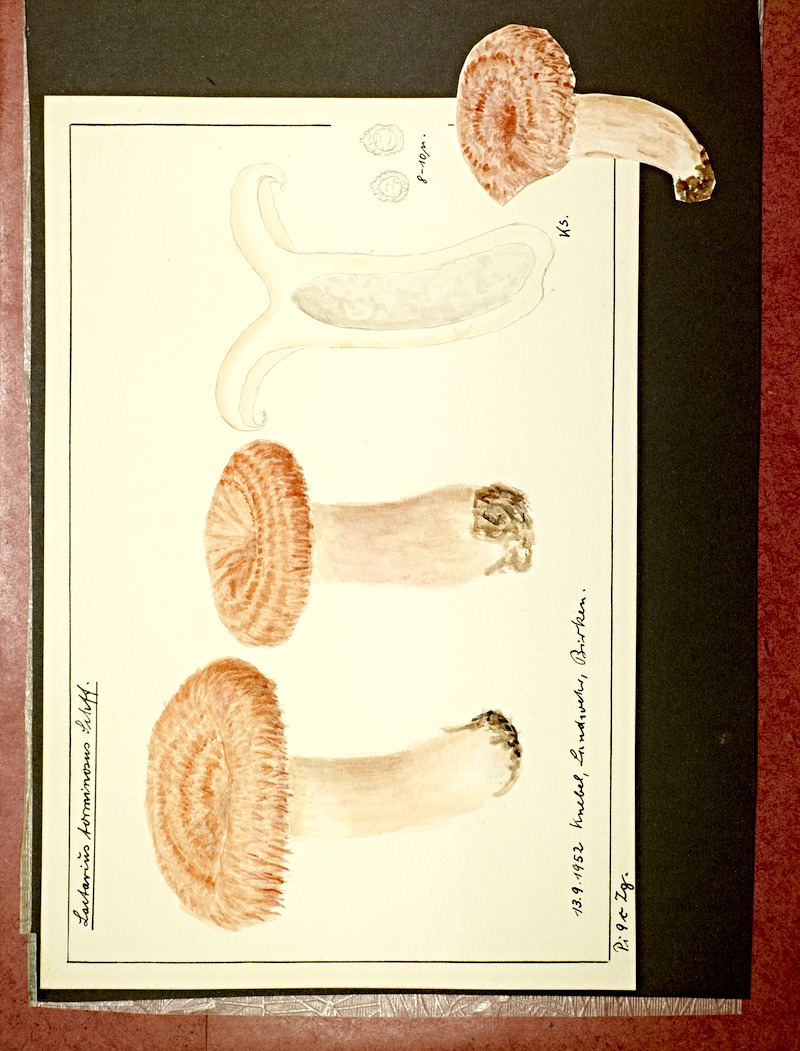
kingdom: Fungi
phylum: Basidiomycota
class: Agaricomycetes
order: Russulales
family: Russulaceae
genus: Lactarius
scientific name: Lactarius torminosus
